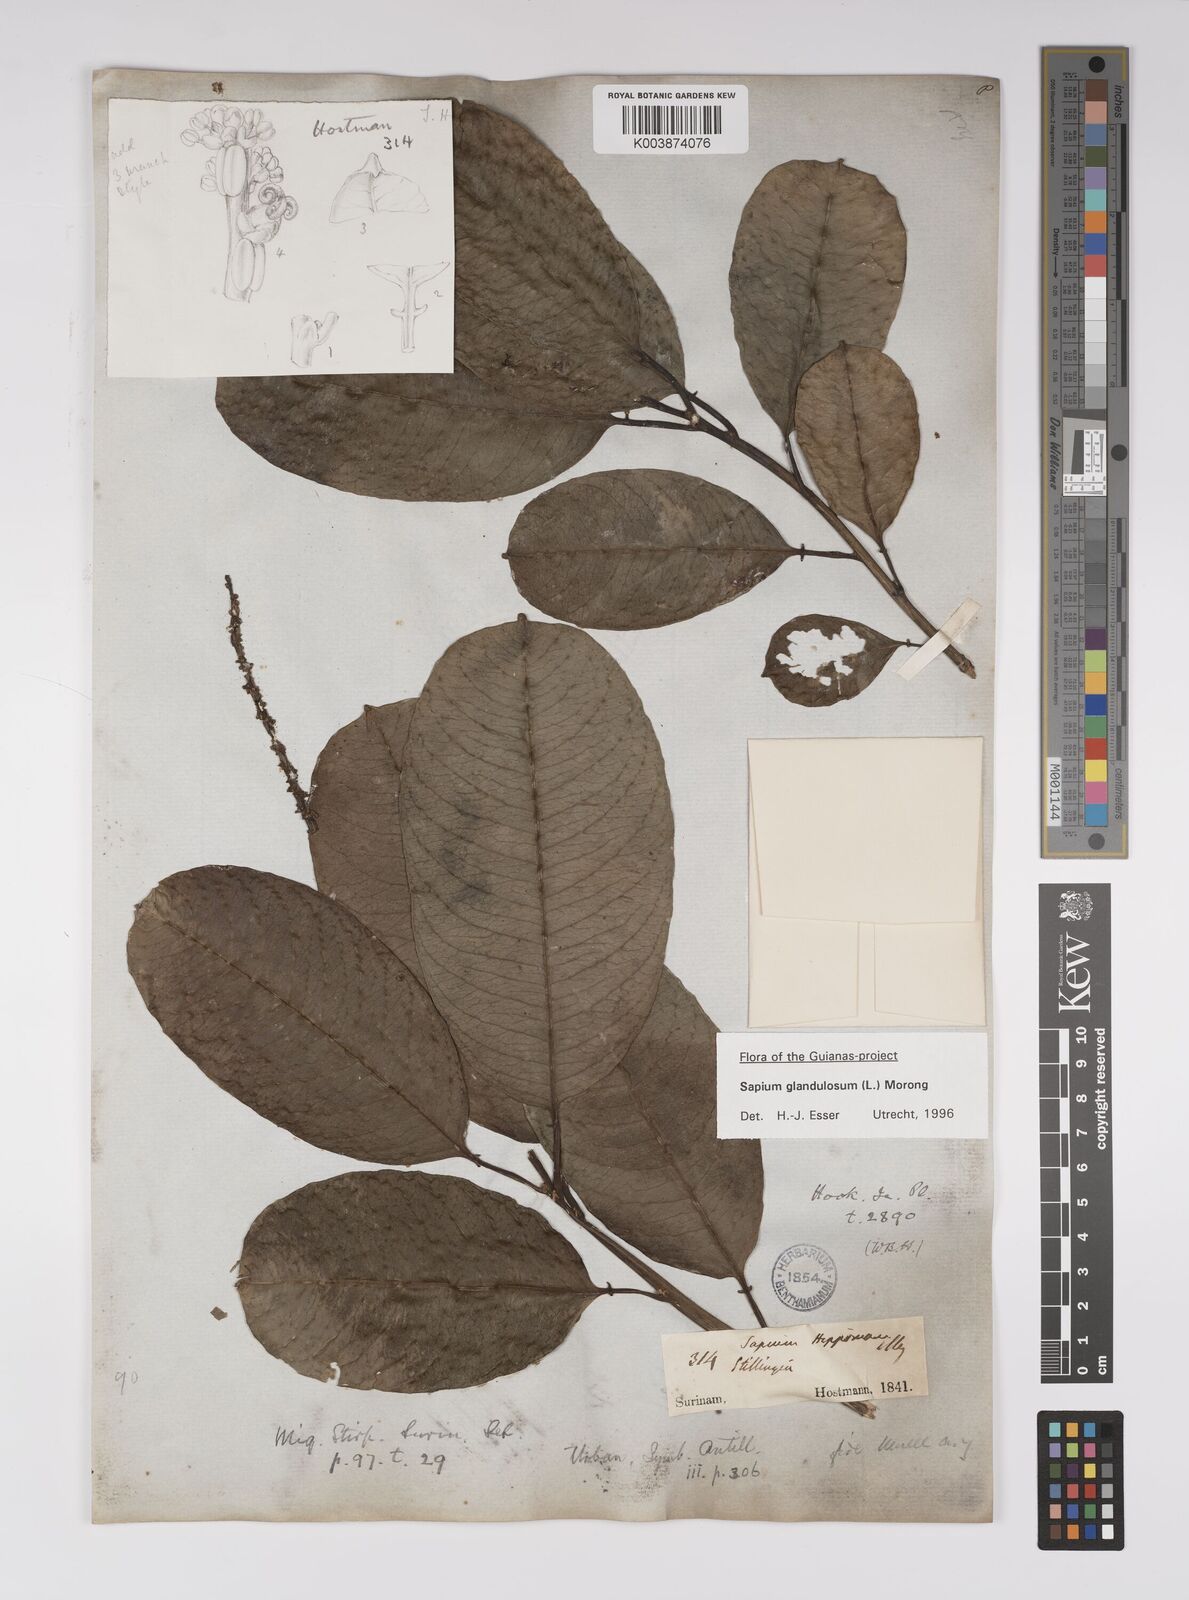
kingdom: Plantae
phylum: Tracheophyta
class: Magnoliopsida
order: Malpighiales
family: Euphorbiaceae
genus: Sapium
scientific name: Sapium glandulosum
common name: Milktree
